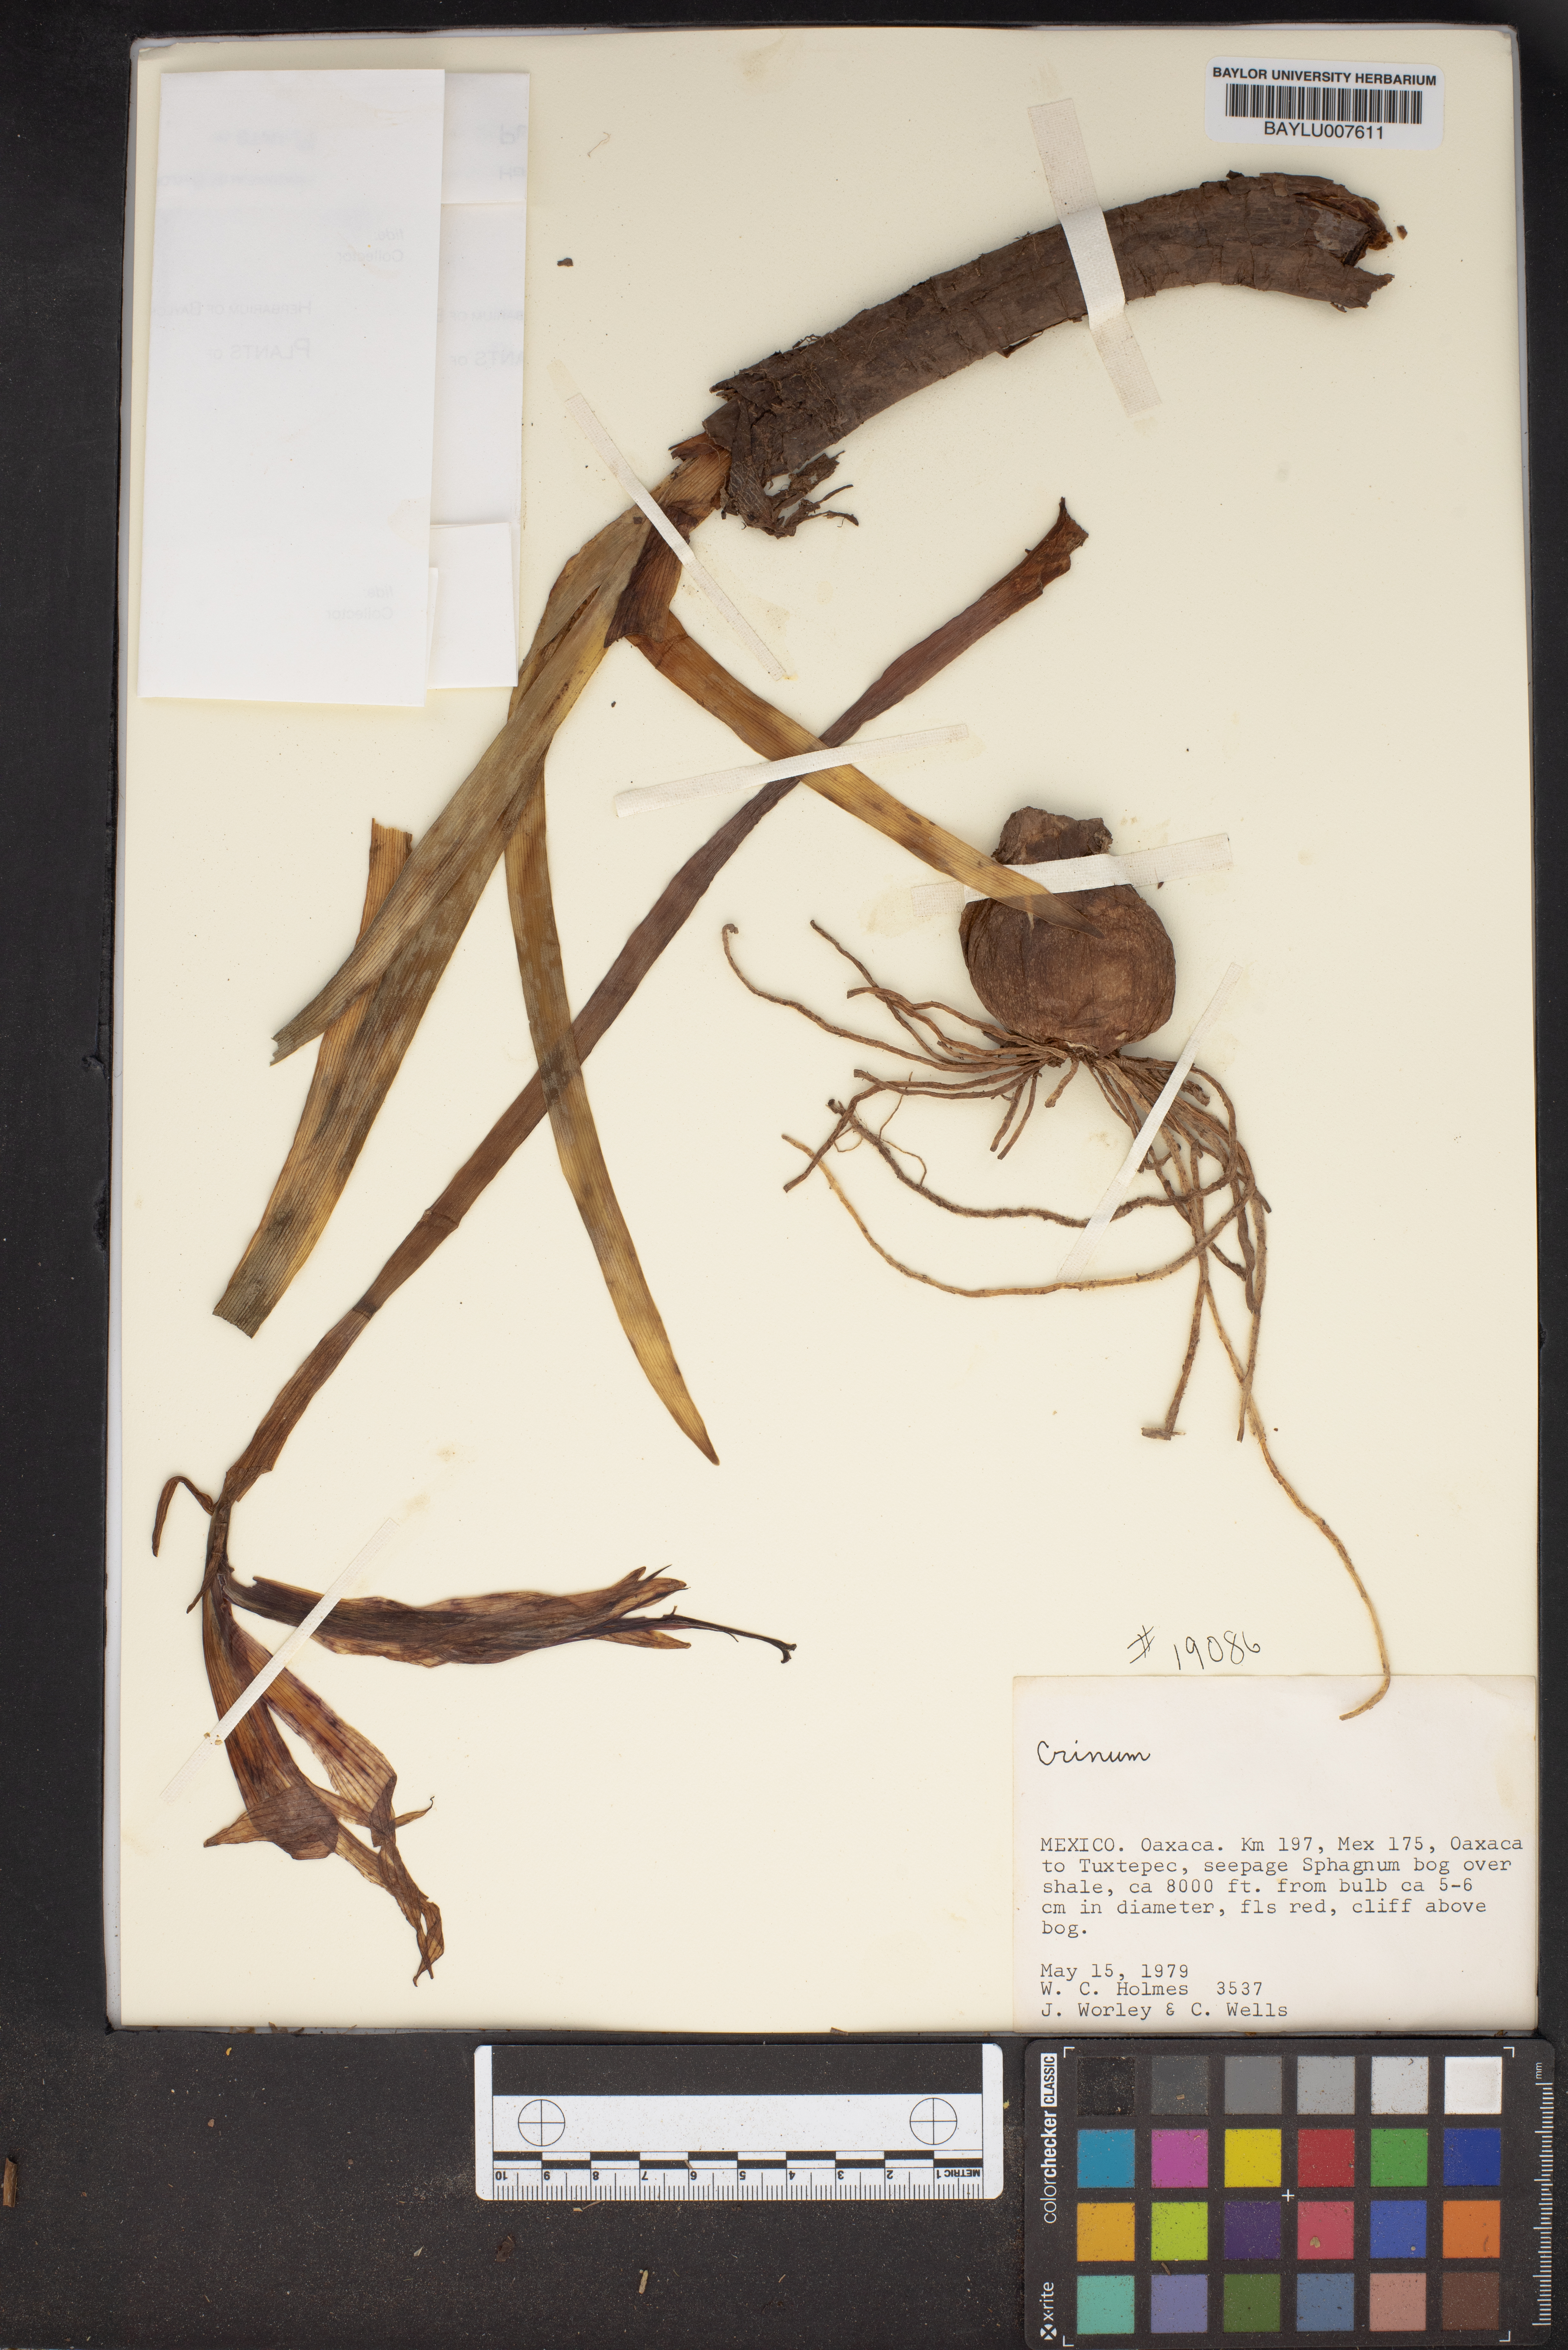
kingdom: Plantae
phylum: Tracheophyta
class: Liliopsida
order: Asparagales
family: Amaryllidaceae
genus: Crinum
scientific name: Crinum
